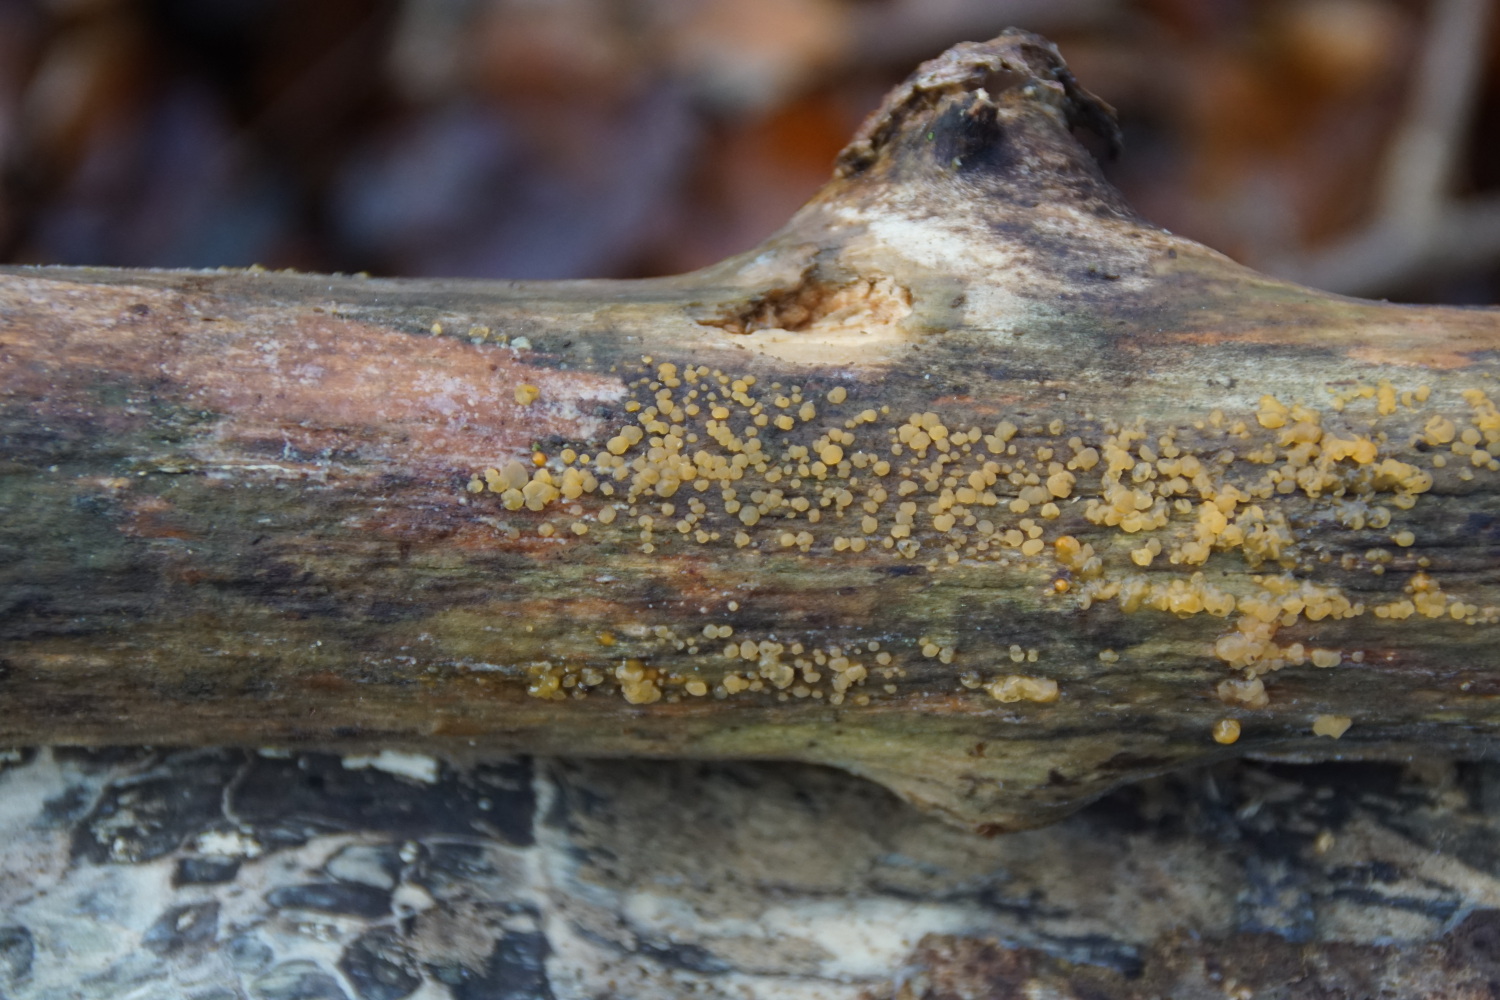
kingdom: Fungi
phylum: Basidiomycota
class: Dacrymycetes
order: Dacrymycetales
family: Dacrymycetaceae
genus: Dacrymyces
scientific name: Dacrymyces stillatus
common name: almindelig tåresvamp
